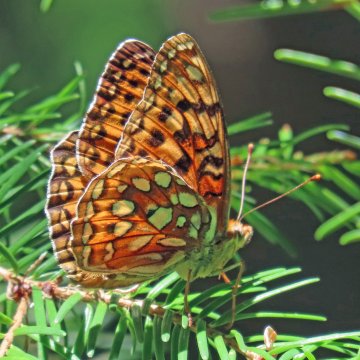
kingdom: Animalia
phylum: Arthropoda
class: Insecta
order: Lepidoptera
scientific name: Lepidoptera
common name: Butterflies
